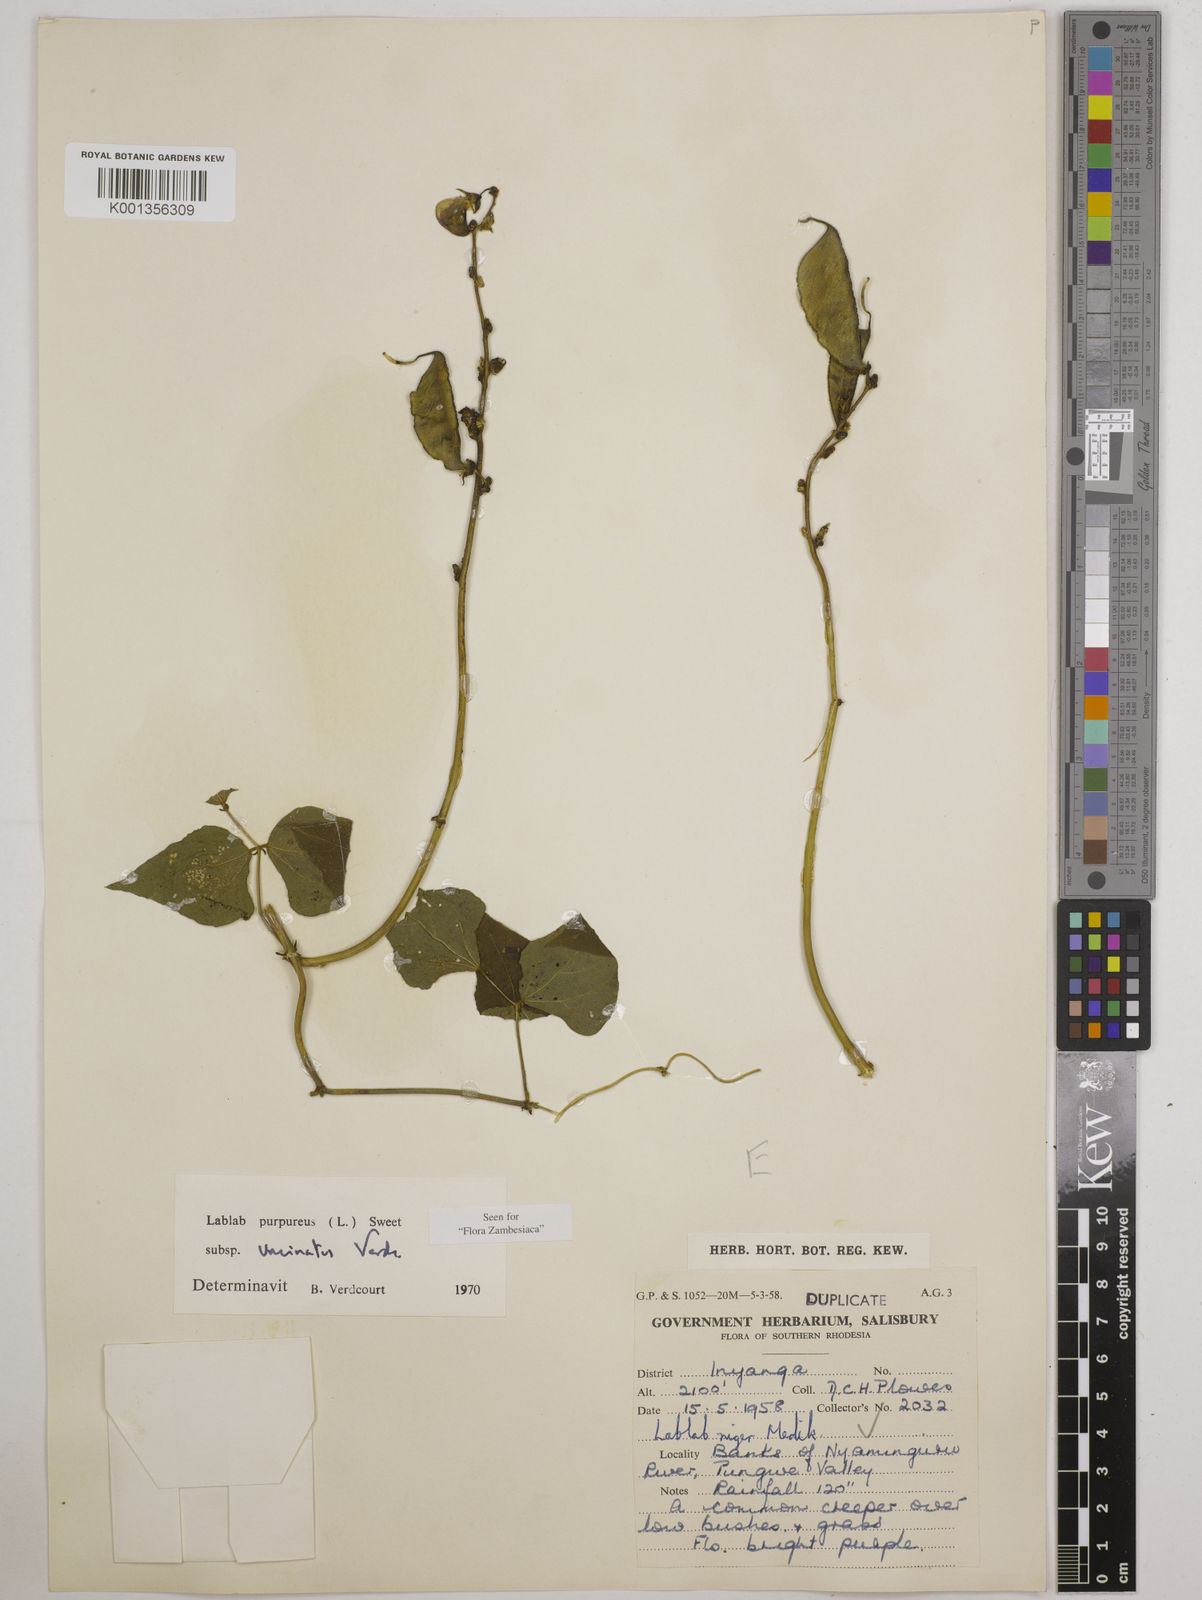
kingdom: Plantae
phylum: Tracheophyta
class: Magnoliopsida
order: Fabales
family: Fabaceae
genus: Lablab
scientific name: Lablab purpureus
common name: Lablab-bean
